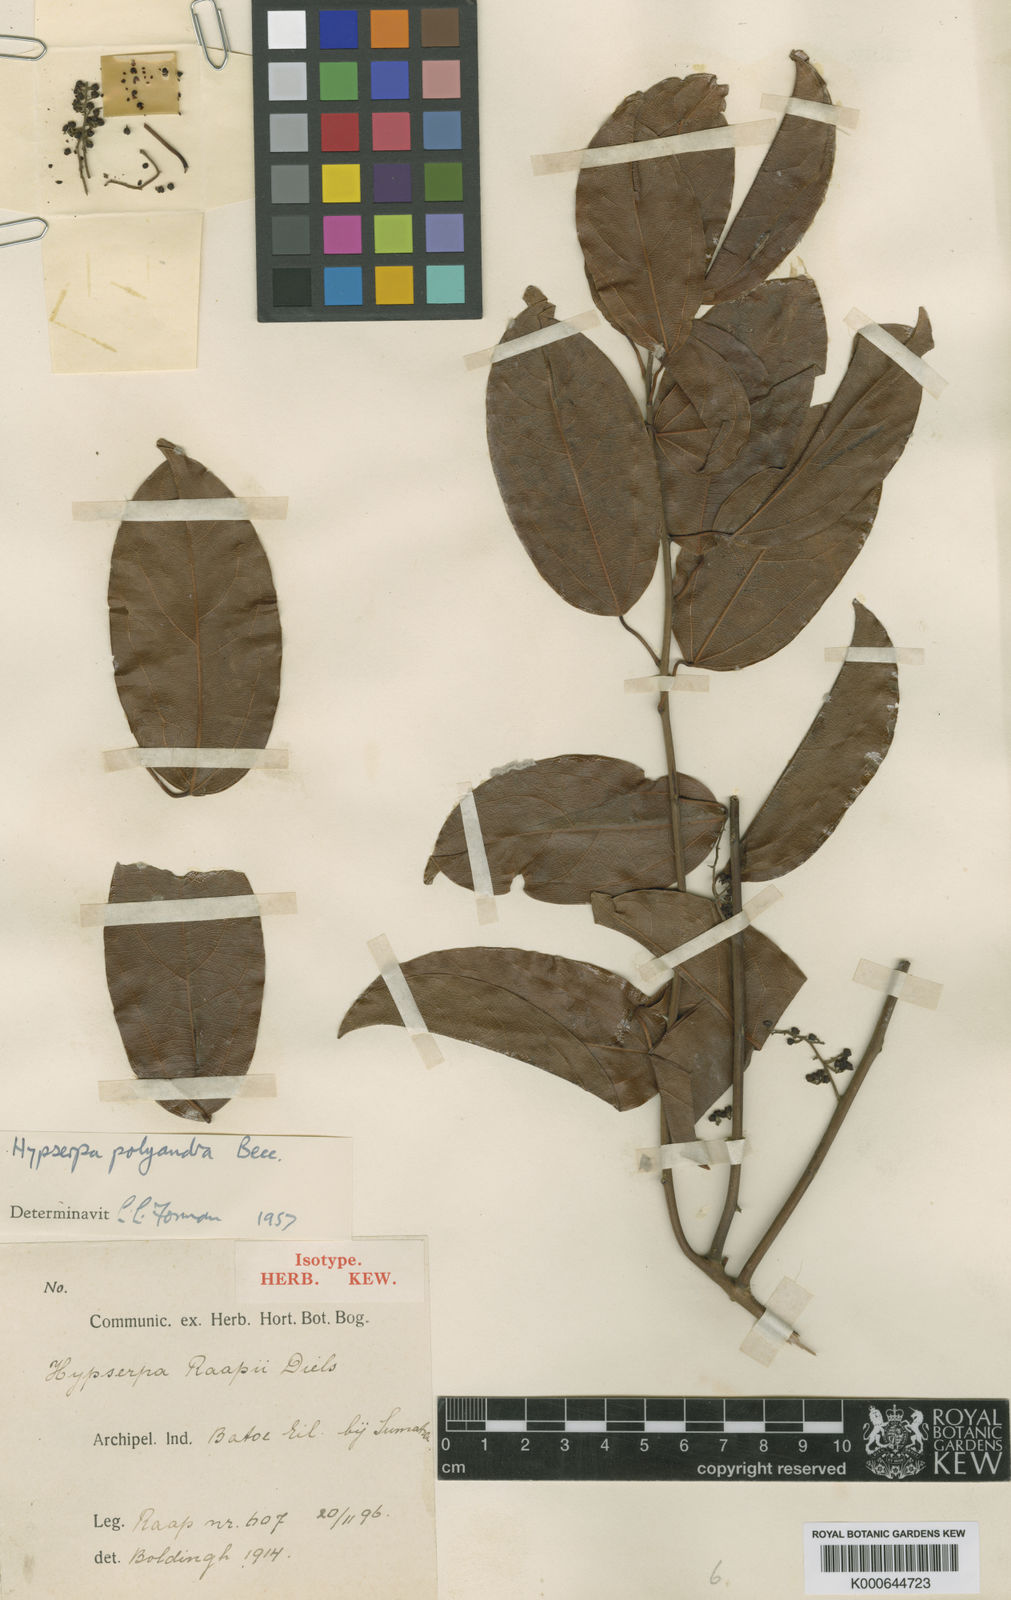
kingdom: Plantae
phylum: Tracheophyta
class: Magnoliopsida
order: Ranunculales
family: Menispermaceae
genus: Hypserpa
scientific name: Hypserpa polyandra
